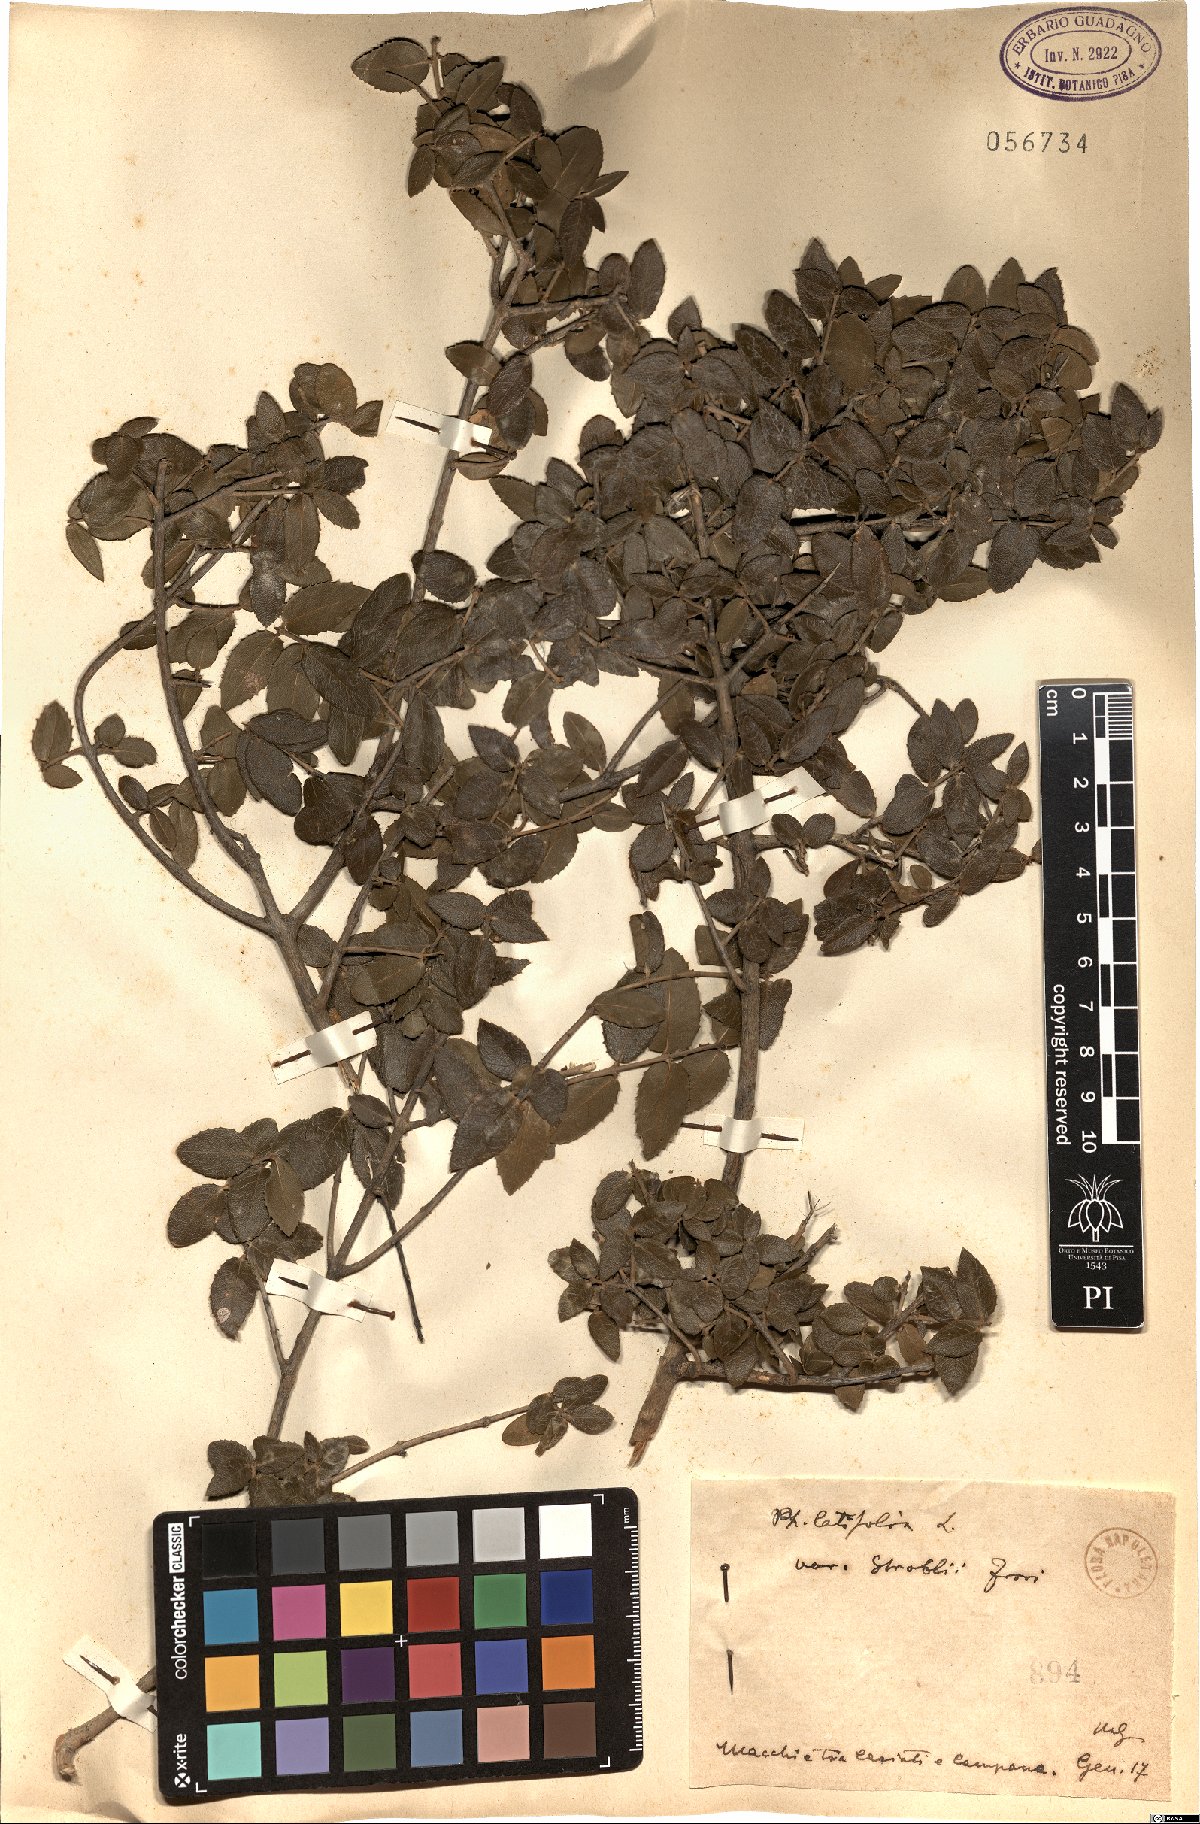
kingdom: Plantae
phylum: Tracheophyta
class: Magnoliopsida
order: Lamiales
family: Oleaceae
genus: Phillyrea
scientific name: Phillyrea latifolia
